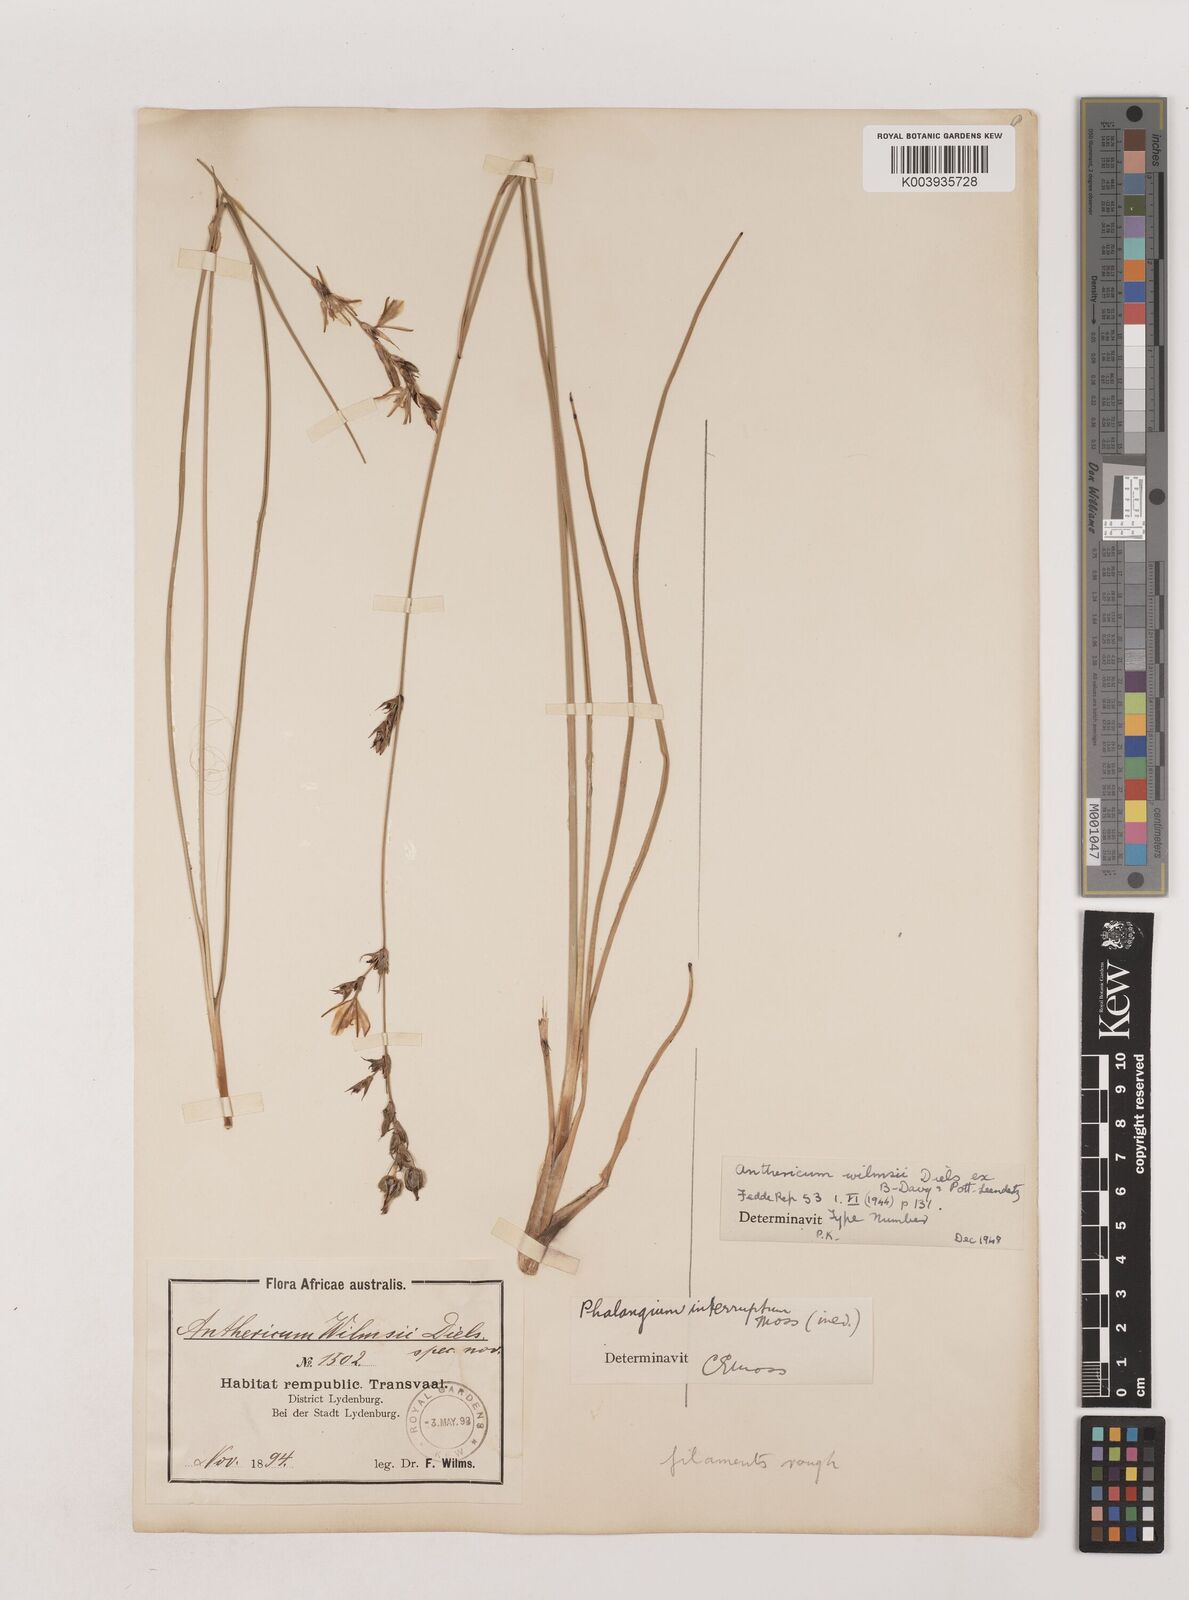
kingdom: Plantae
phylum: Tracheophyta
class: Liliopsida
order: Asparagales
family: Asparagaceae
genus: Chlorophytum
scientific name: Chlorophytum fasciculatum
